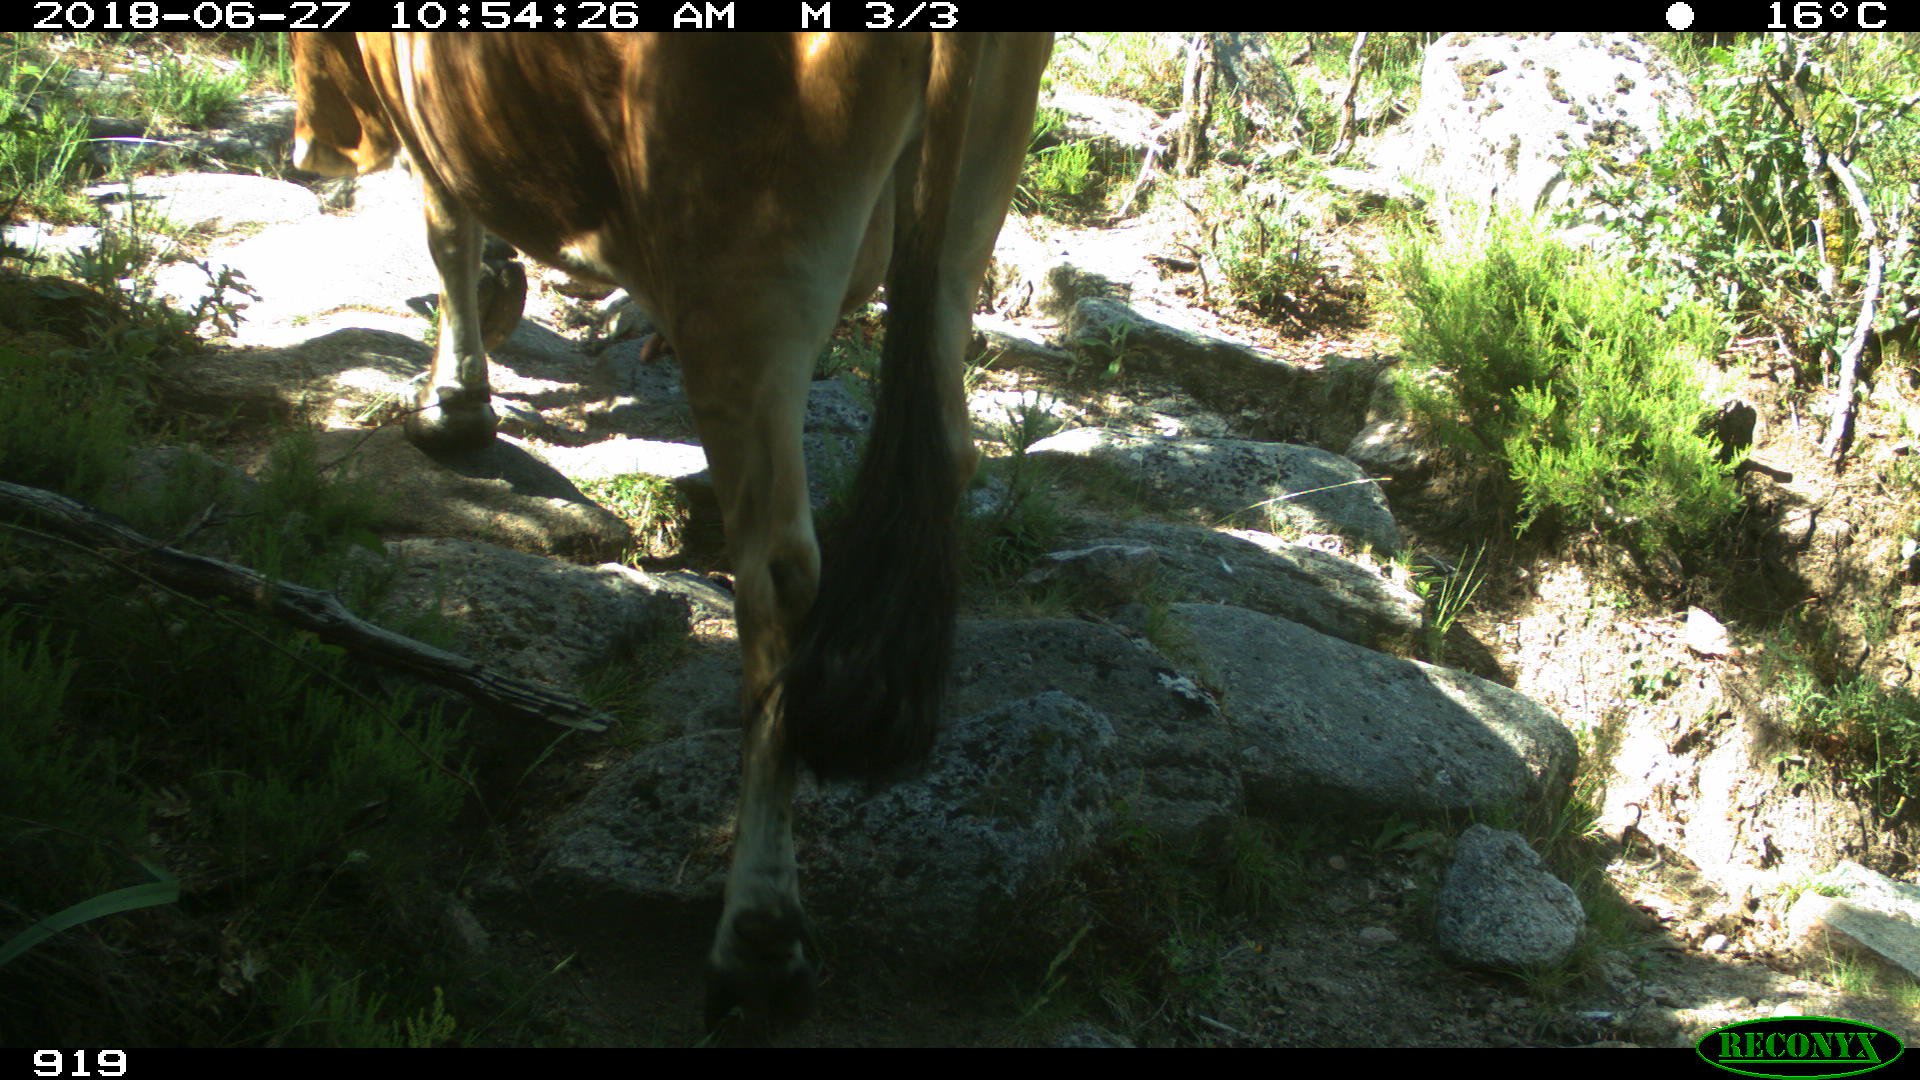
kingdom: Animalia
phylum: Chordata
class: Mammalia
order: Artiodactyla
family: Bovidae
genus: Bos
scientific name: Bos taurus
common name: Domesticated cattle
